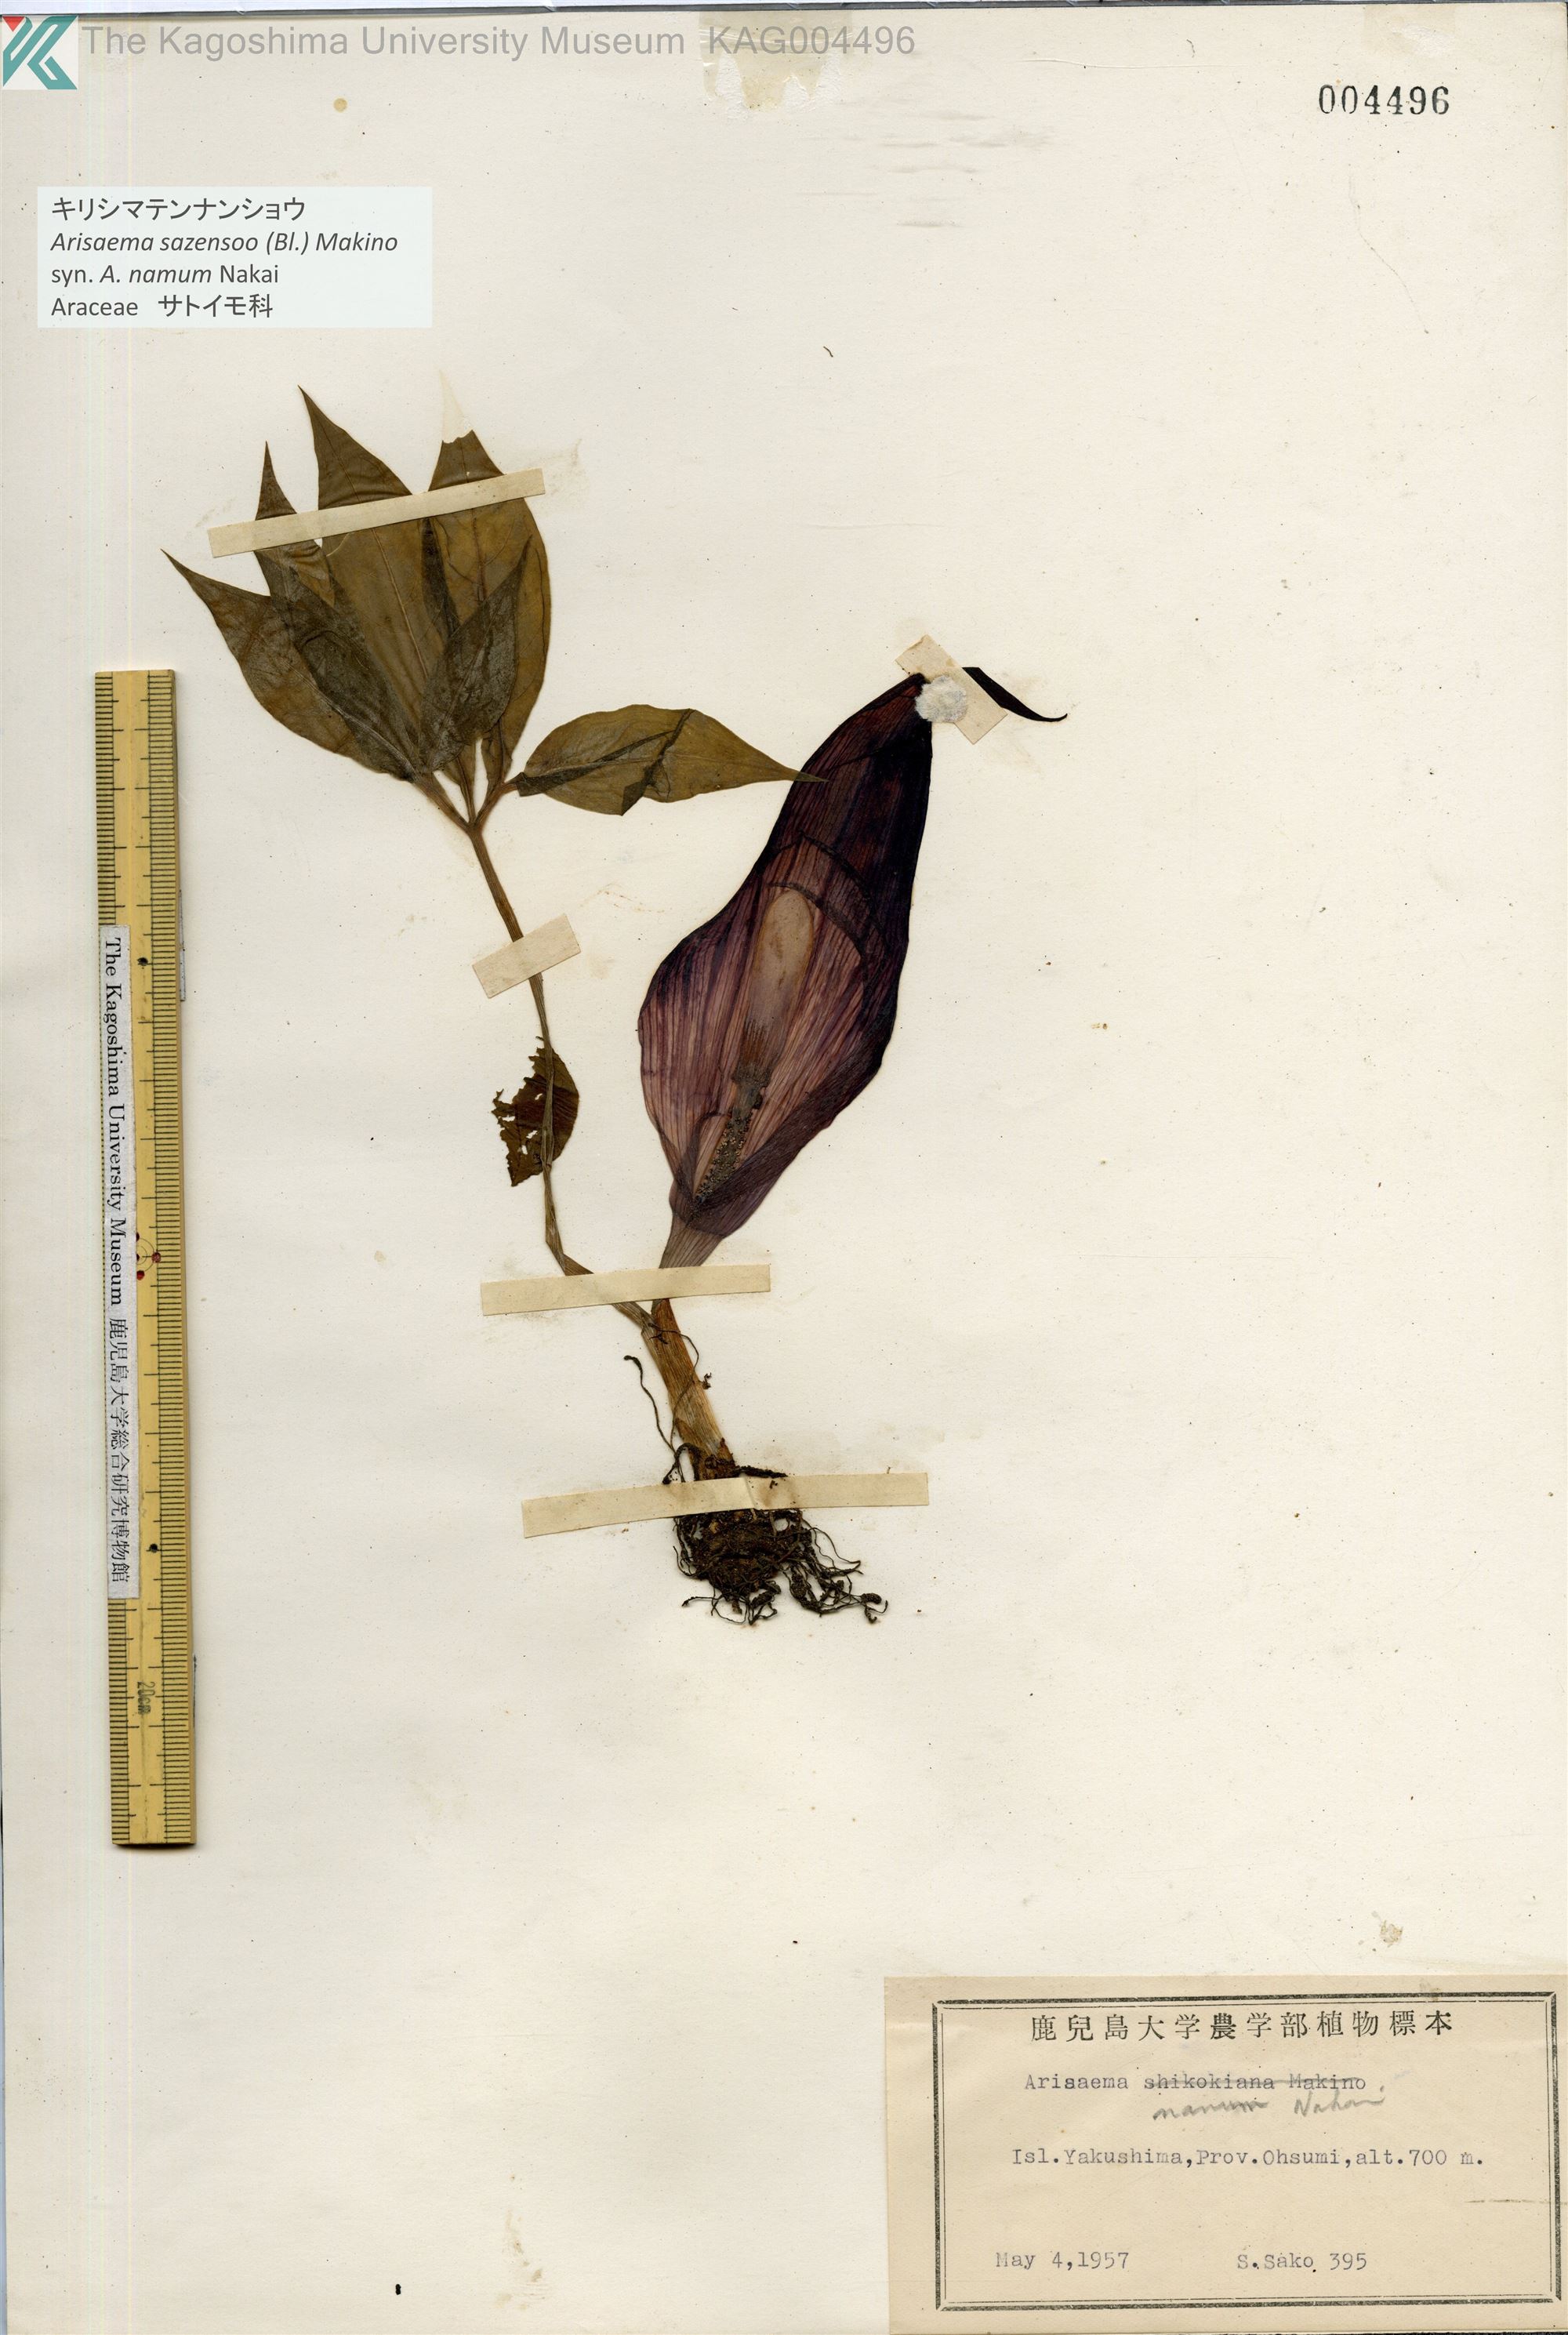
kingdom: Plantae
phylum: Tracheophyta
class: Liliopsida
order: Alismatales
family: Araceae
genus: Arisaema
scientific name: Arisaema sazensoo
